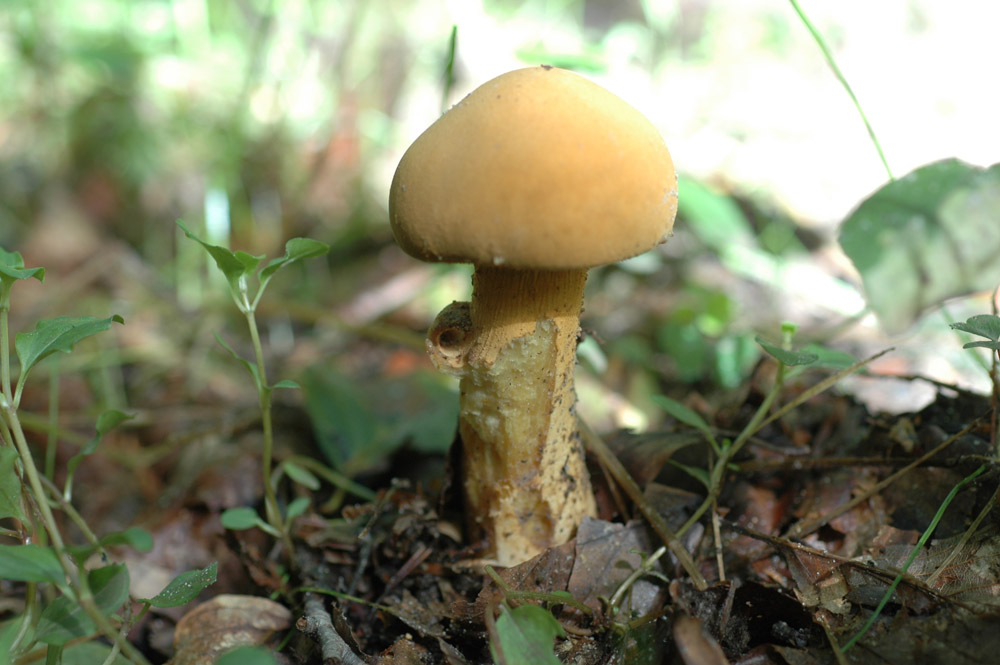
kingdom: Fungi
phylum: Basidiomycota
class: Agaricomycetes
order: Agaricales
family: Tricholomataceae
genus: Phaeolepiota
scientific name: Phaeolepiota aurea
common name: gyldenhat
